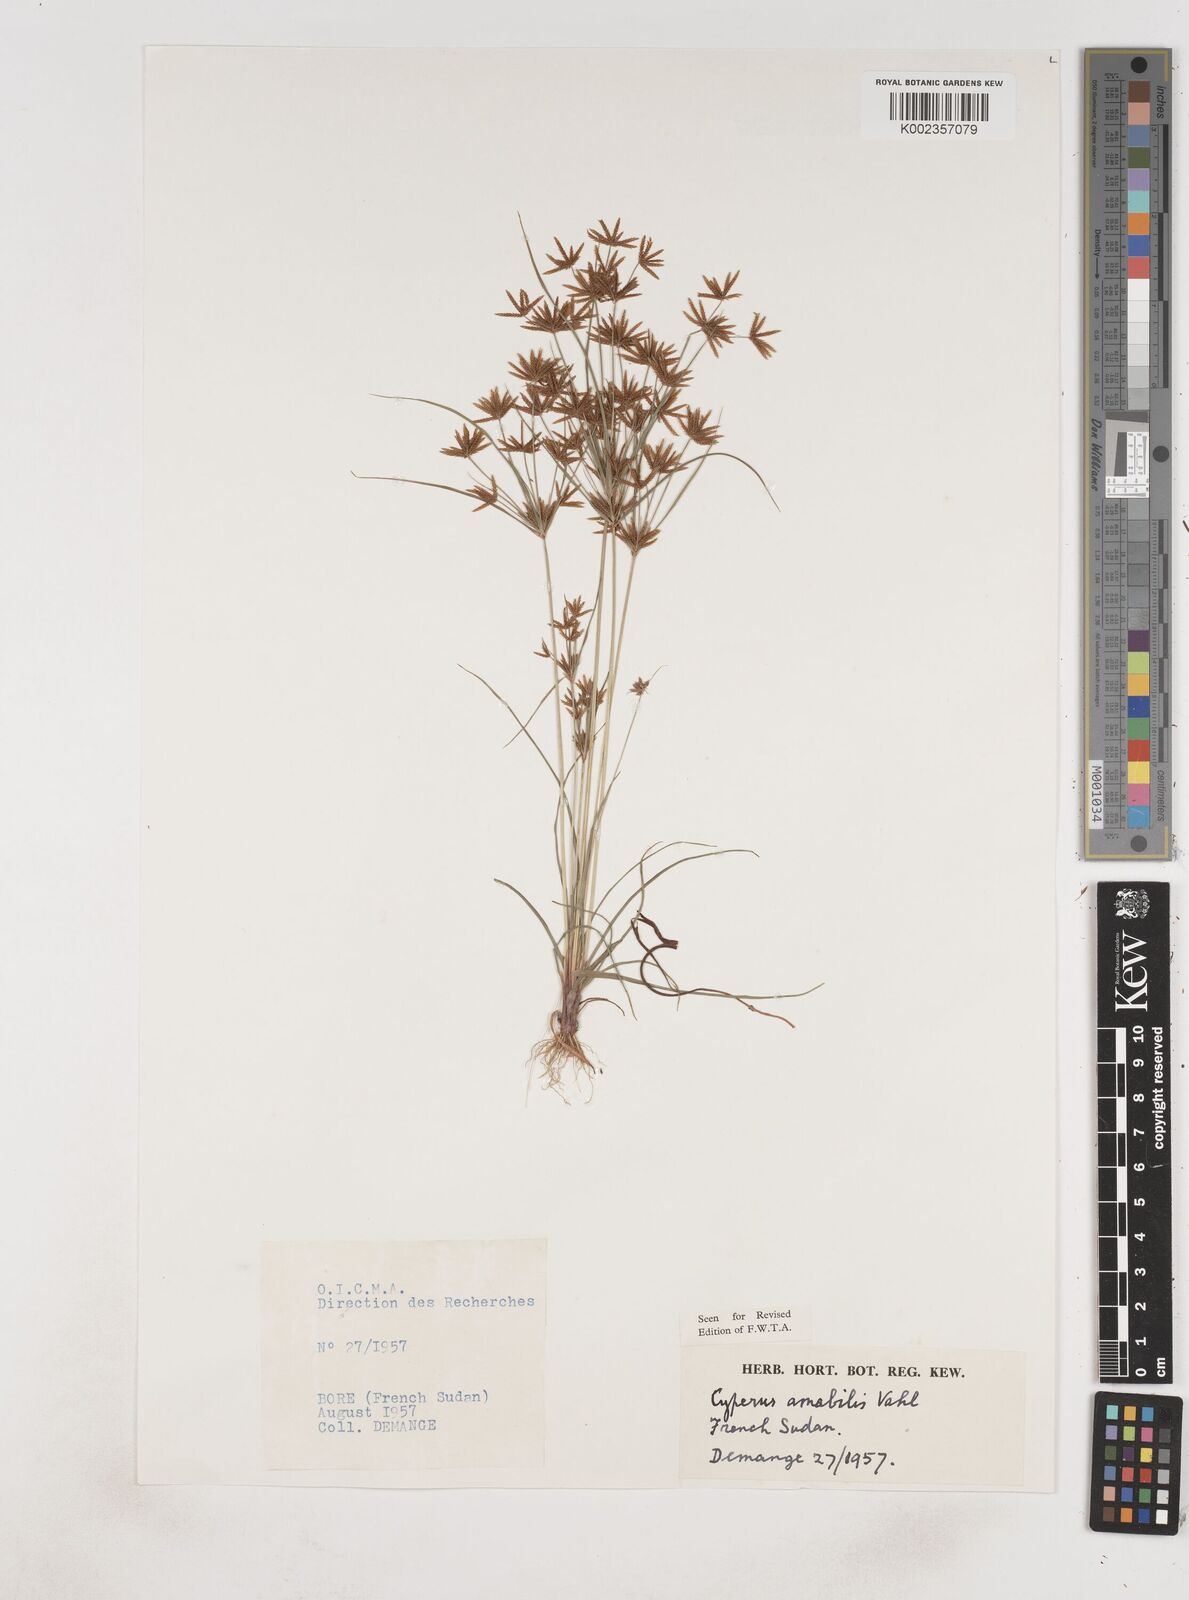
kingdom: Plantae
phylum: Tracheophyta
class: Liliopsida
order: Poales
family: Cyperaceae
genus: Cyperus
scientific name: Cyperus amabilis
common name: Foothill flat sedge
